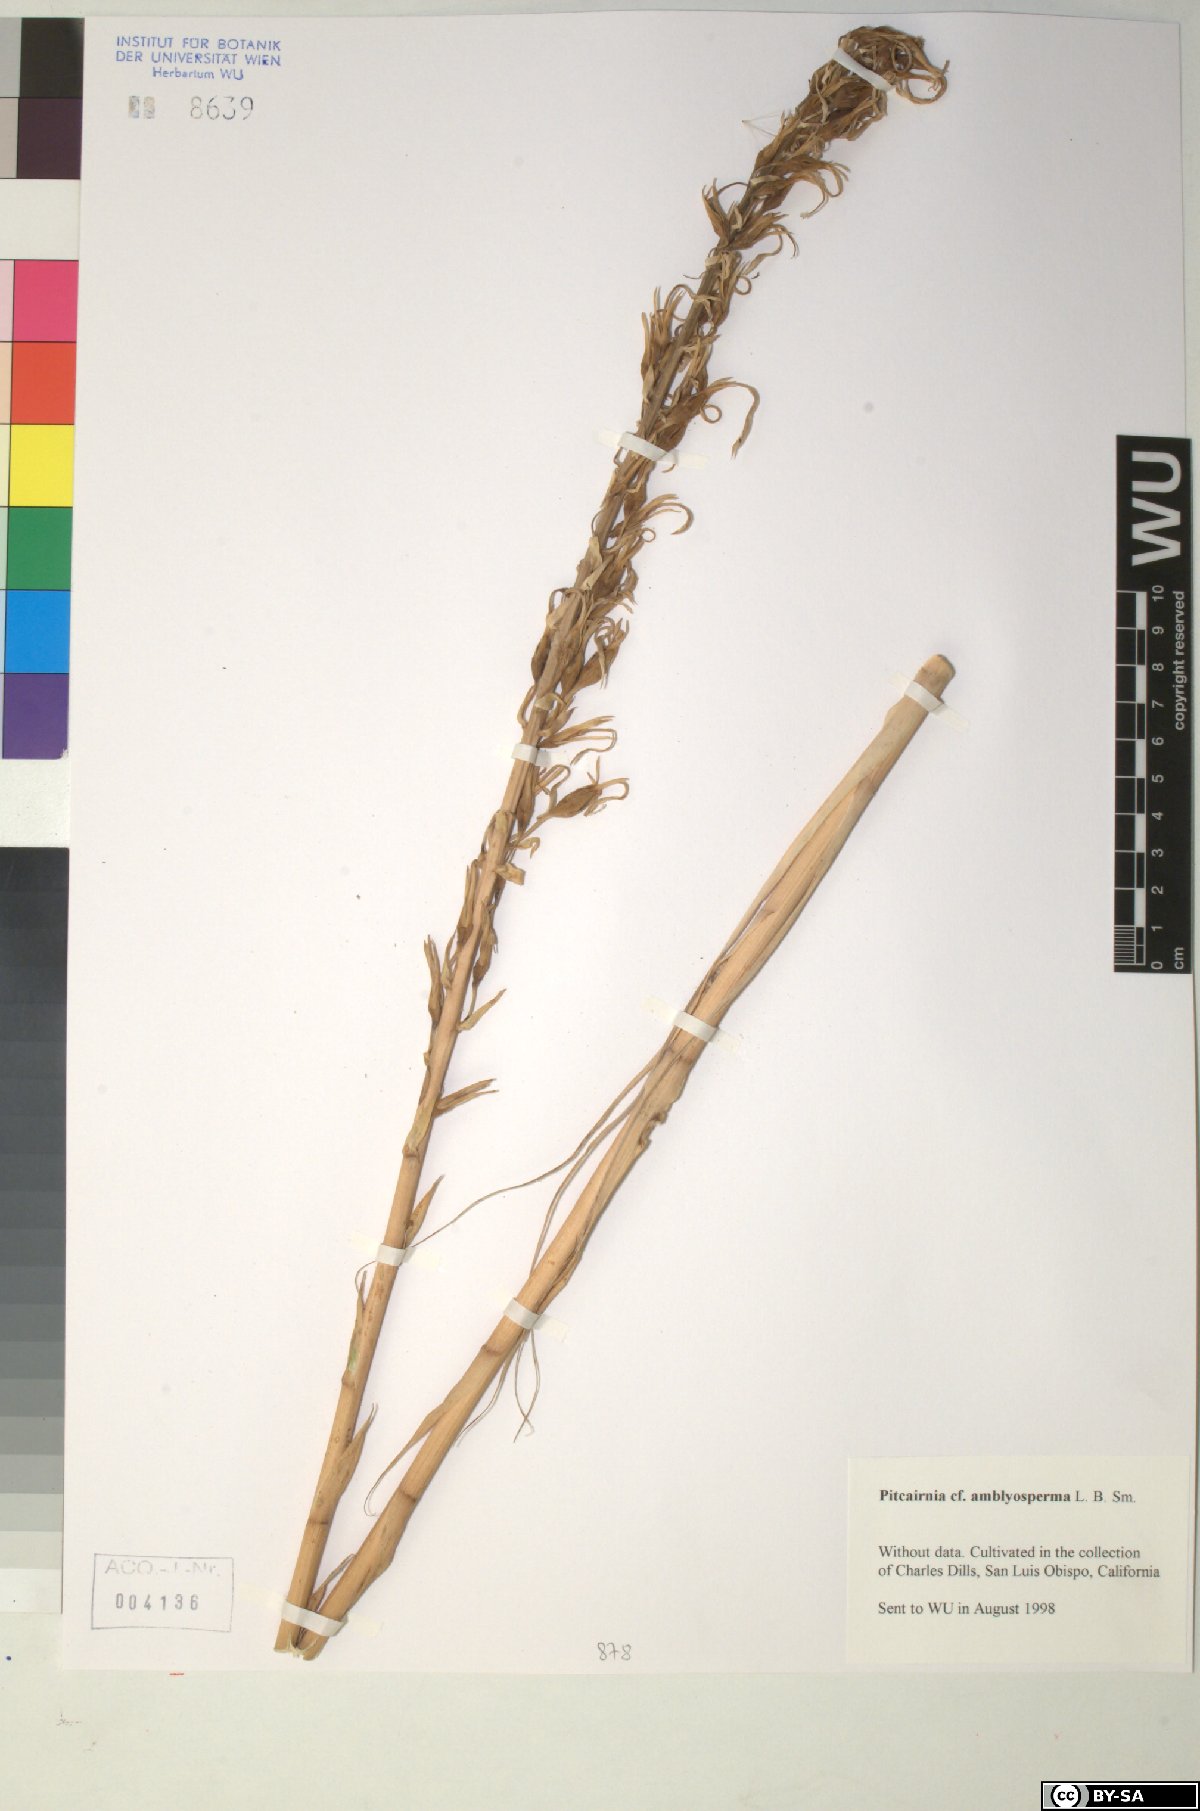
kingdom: Plantae
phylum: Tracheophyta
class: Liliopsida
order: Poales
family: Bromeliaceae
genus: Pitcairnia
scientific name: Pitcairnia amblyosperma
